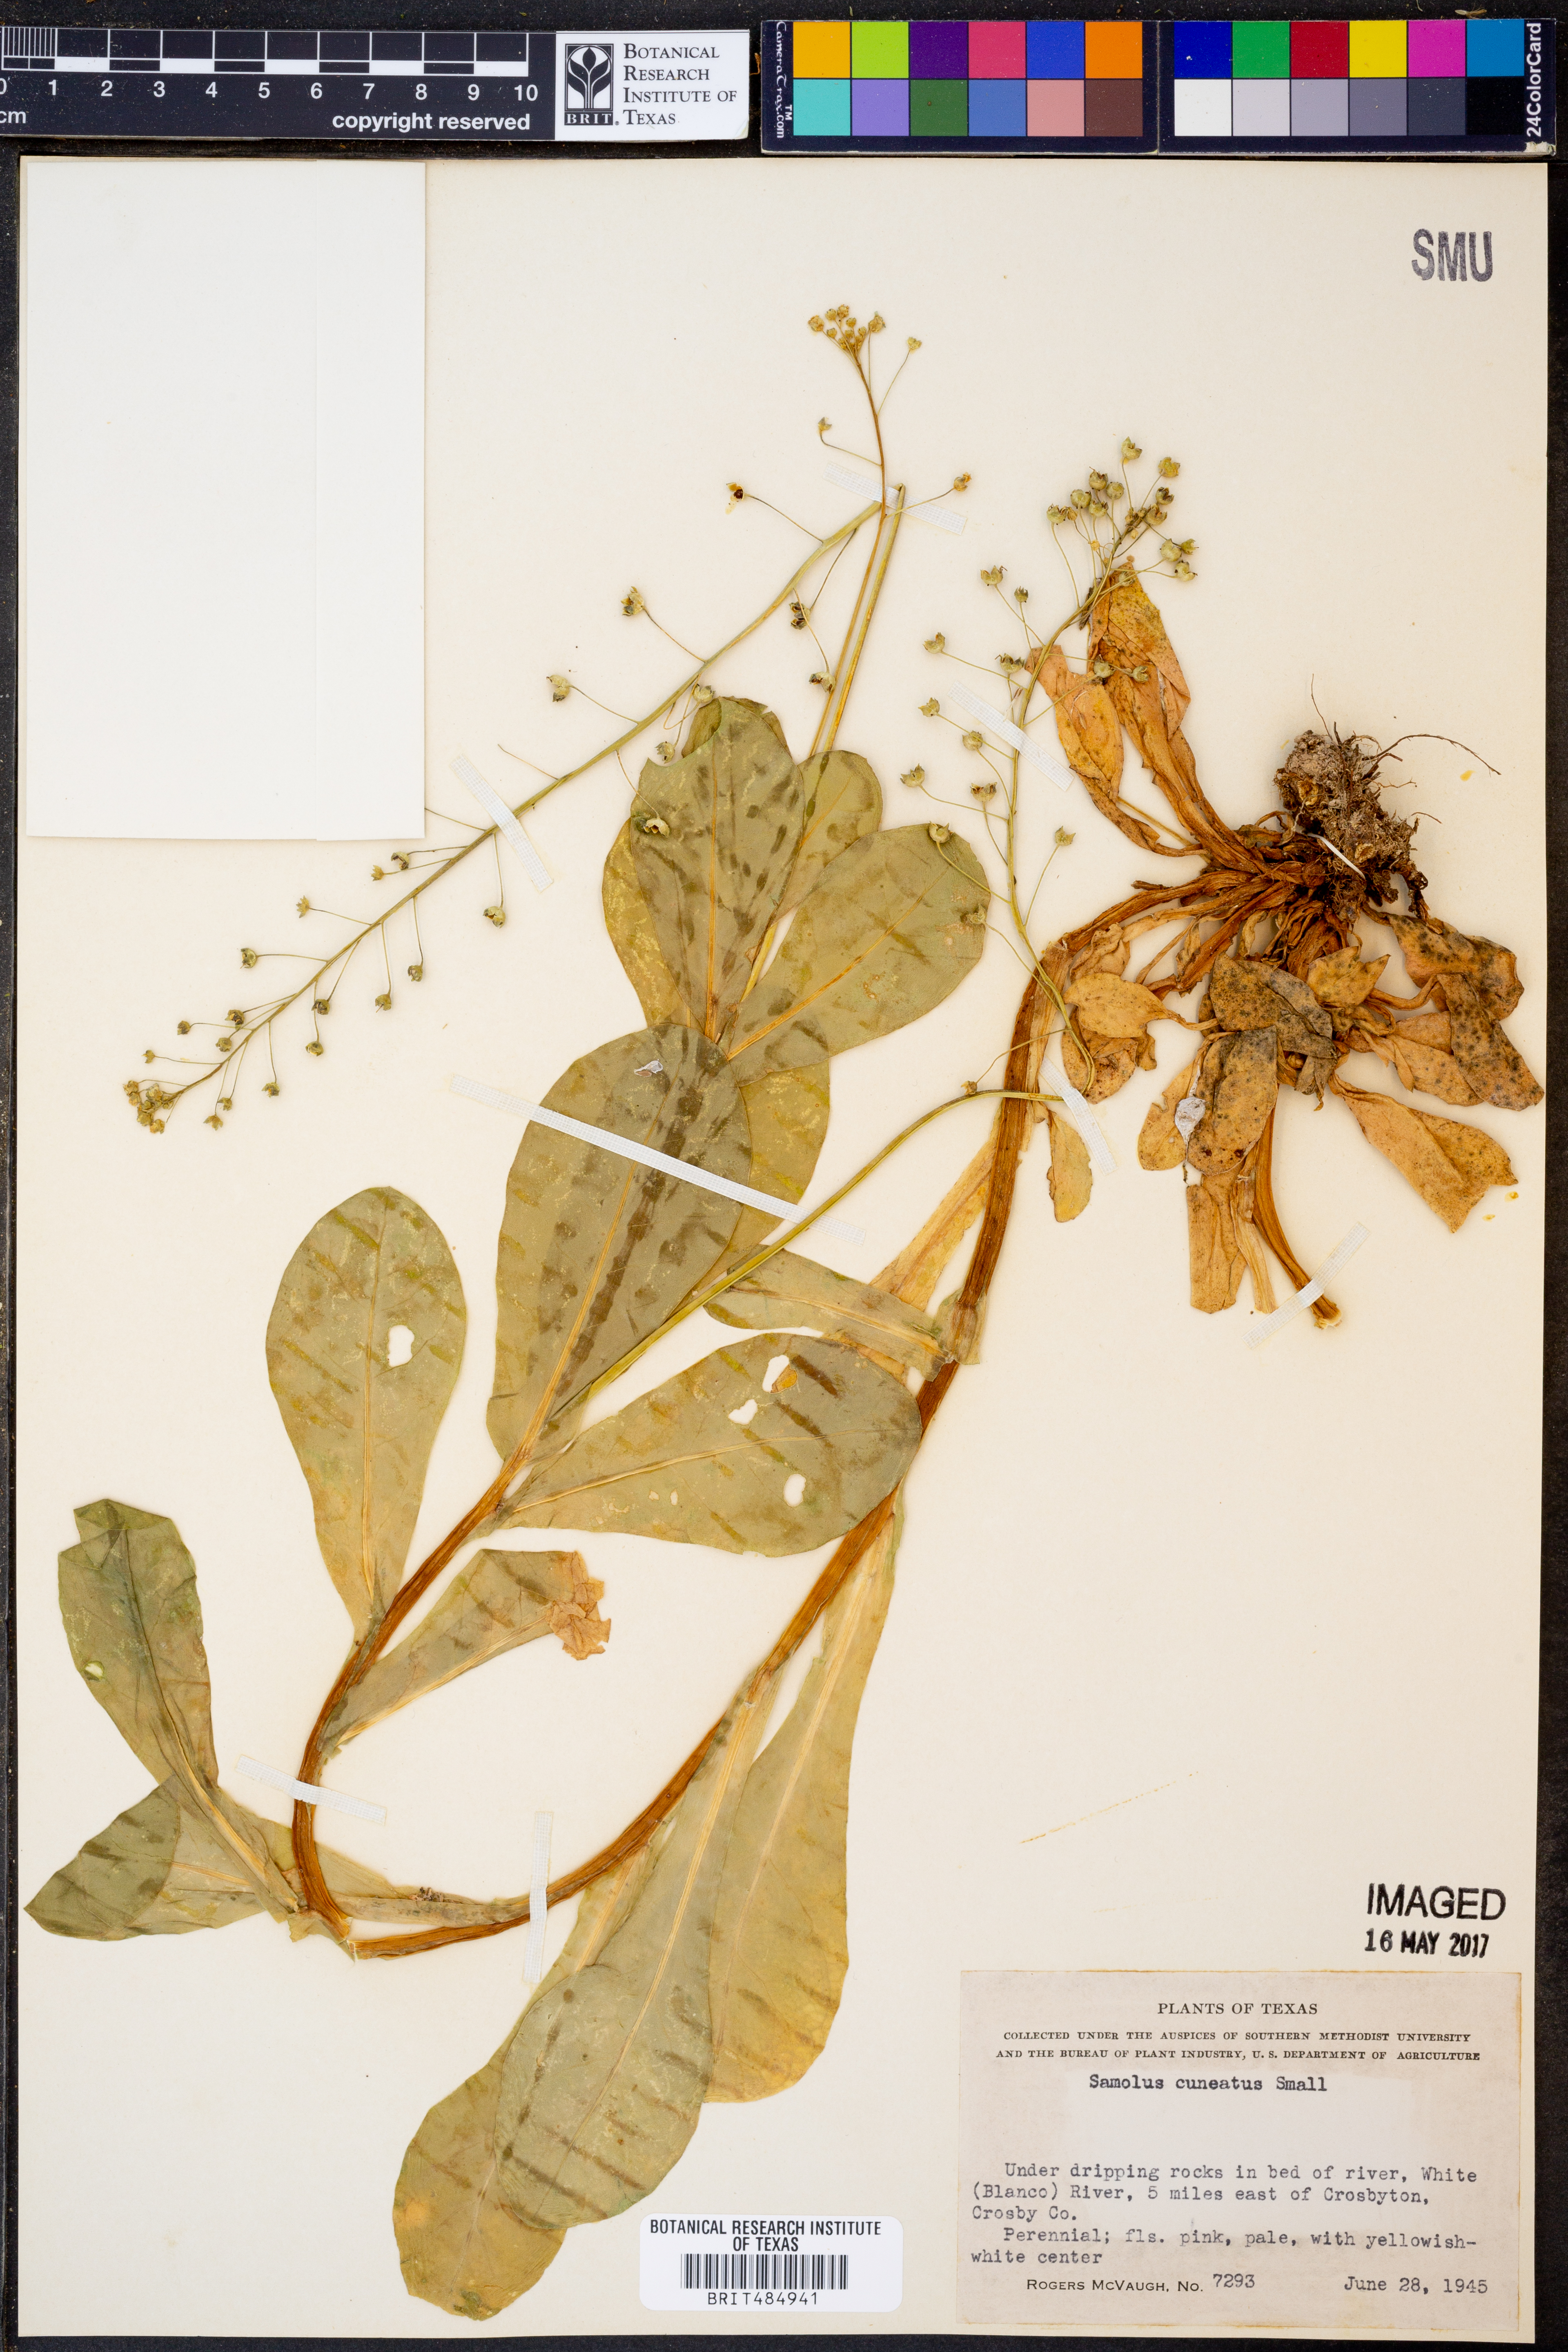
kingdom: Plantae
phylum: Tracheophyta
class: Magnoliopsida
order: Ericales
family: Primulaceae
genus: Samolus
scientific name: Samolus ebracteatus
